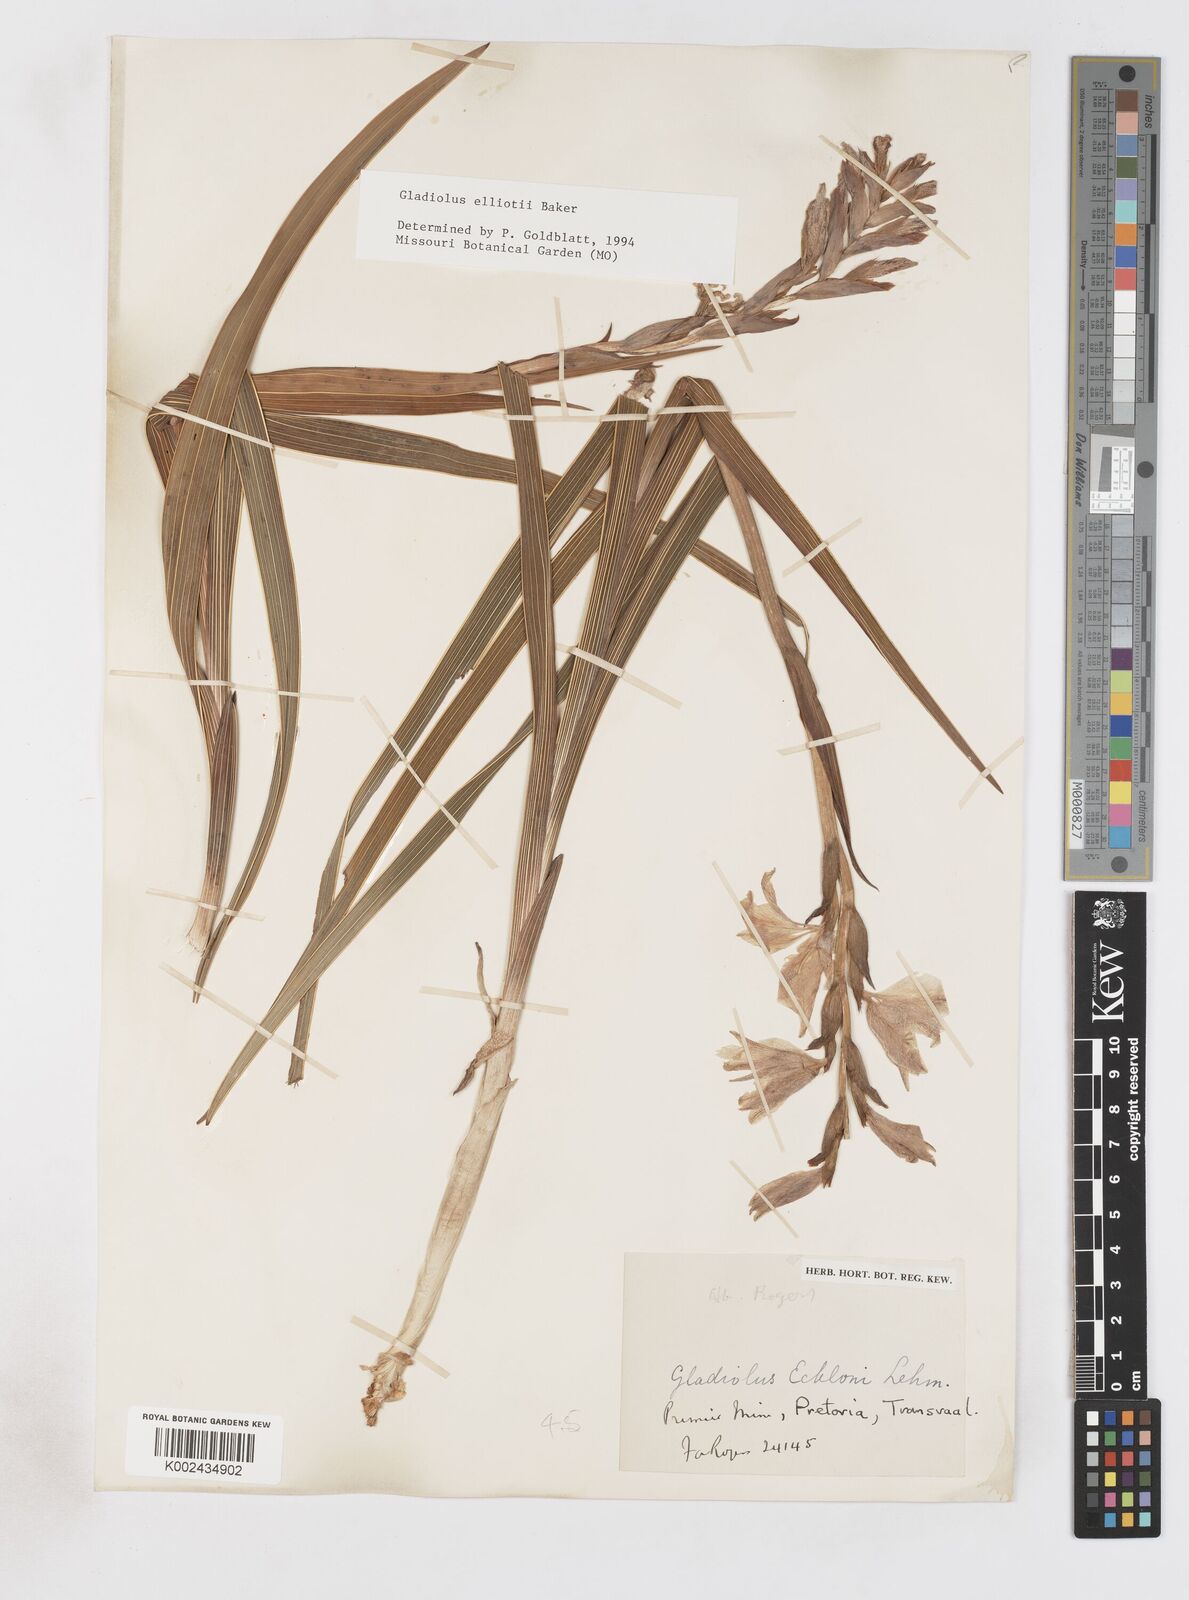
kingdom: Plantae
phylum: Tracheophyta
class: Liliopsida
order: Asparagales
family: Iridaceae
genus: Gladiolus
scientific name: Gladiolus elliotii
